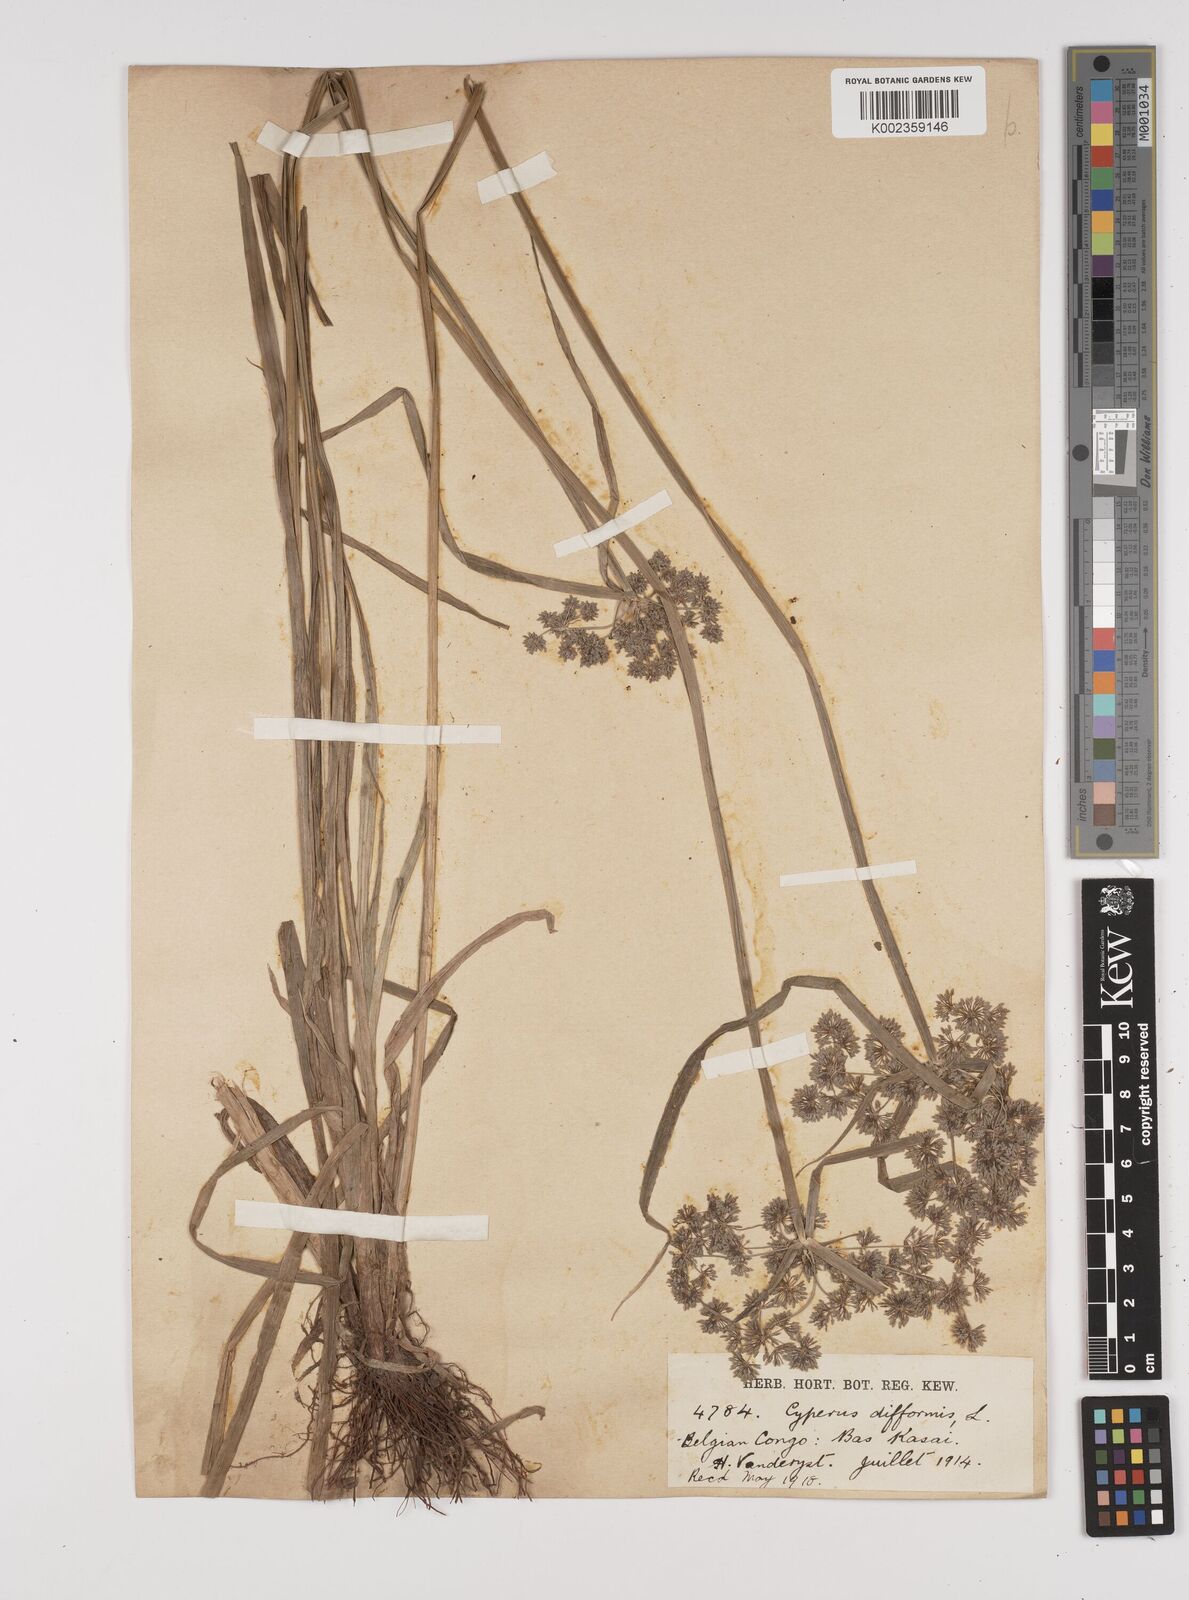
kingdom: Plantae
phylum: Tracheophyta
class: Liliopsida
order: Poales
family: Cyperaceae
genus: Cyperus
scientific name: Cyperus difformis
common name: Variable flatsedge
